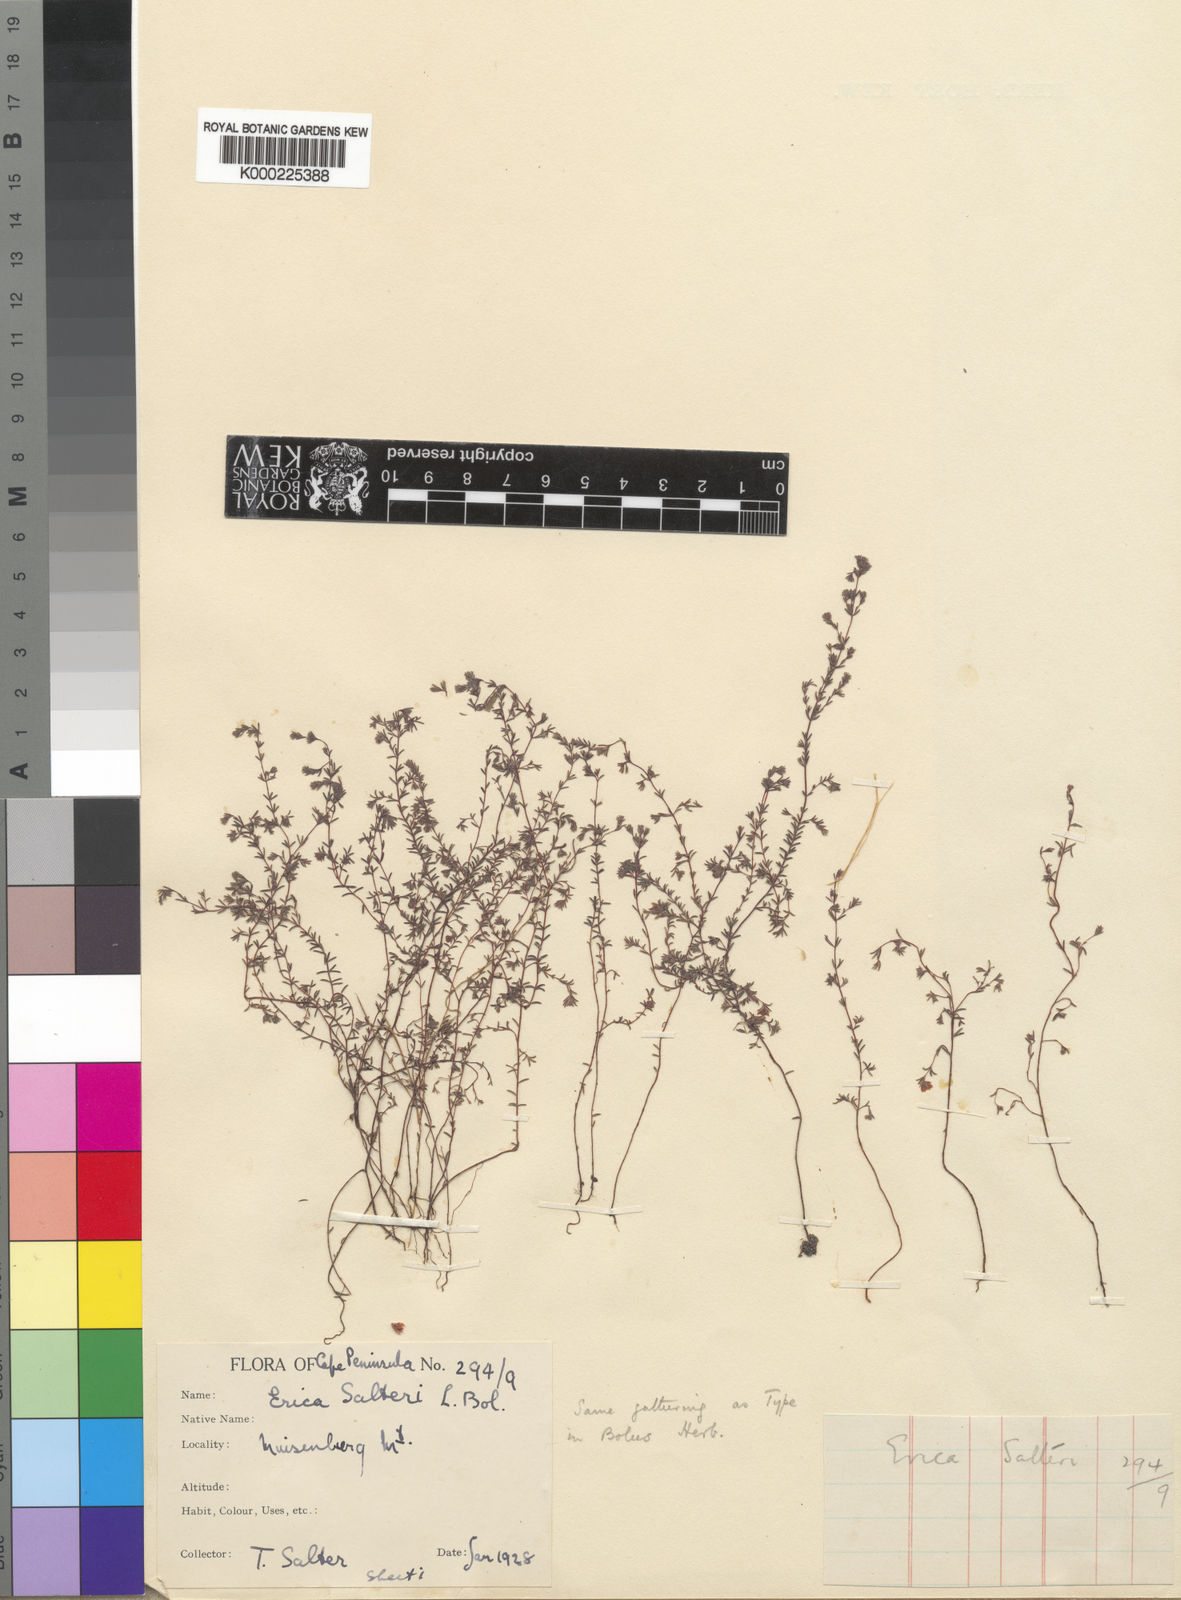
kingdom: Plantae
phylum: Tracheophyta
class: Magnoliopsida
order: Ericales
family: Ericaceae
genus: Erica
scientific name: Erica salteri
